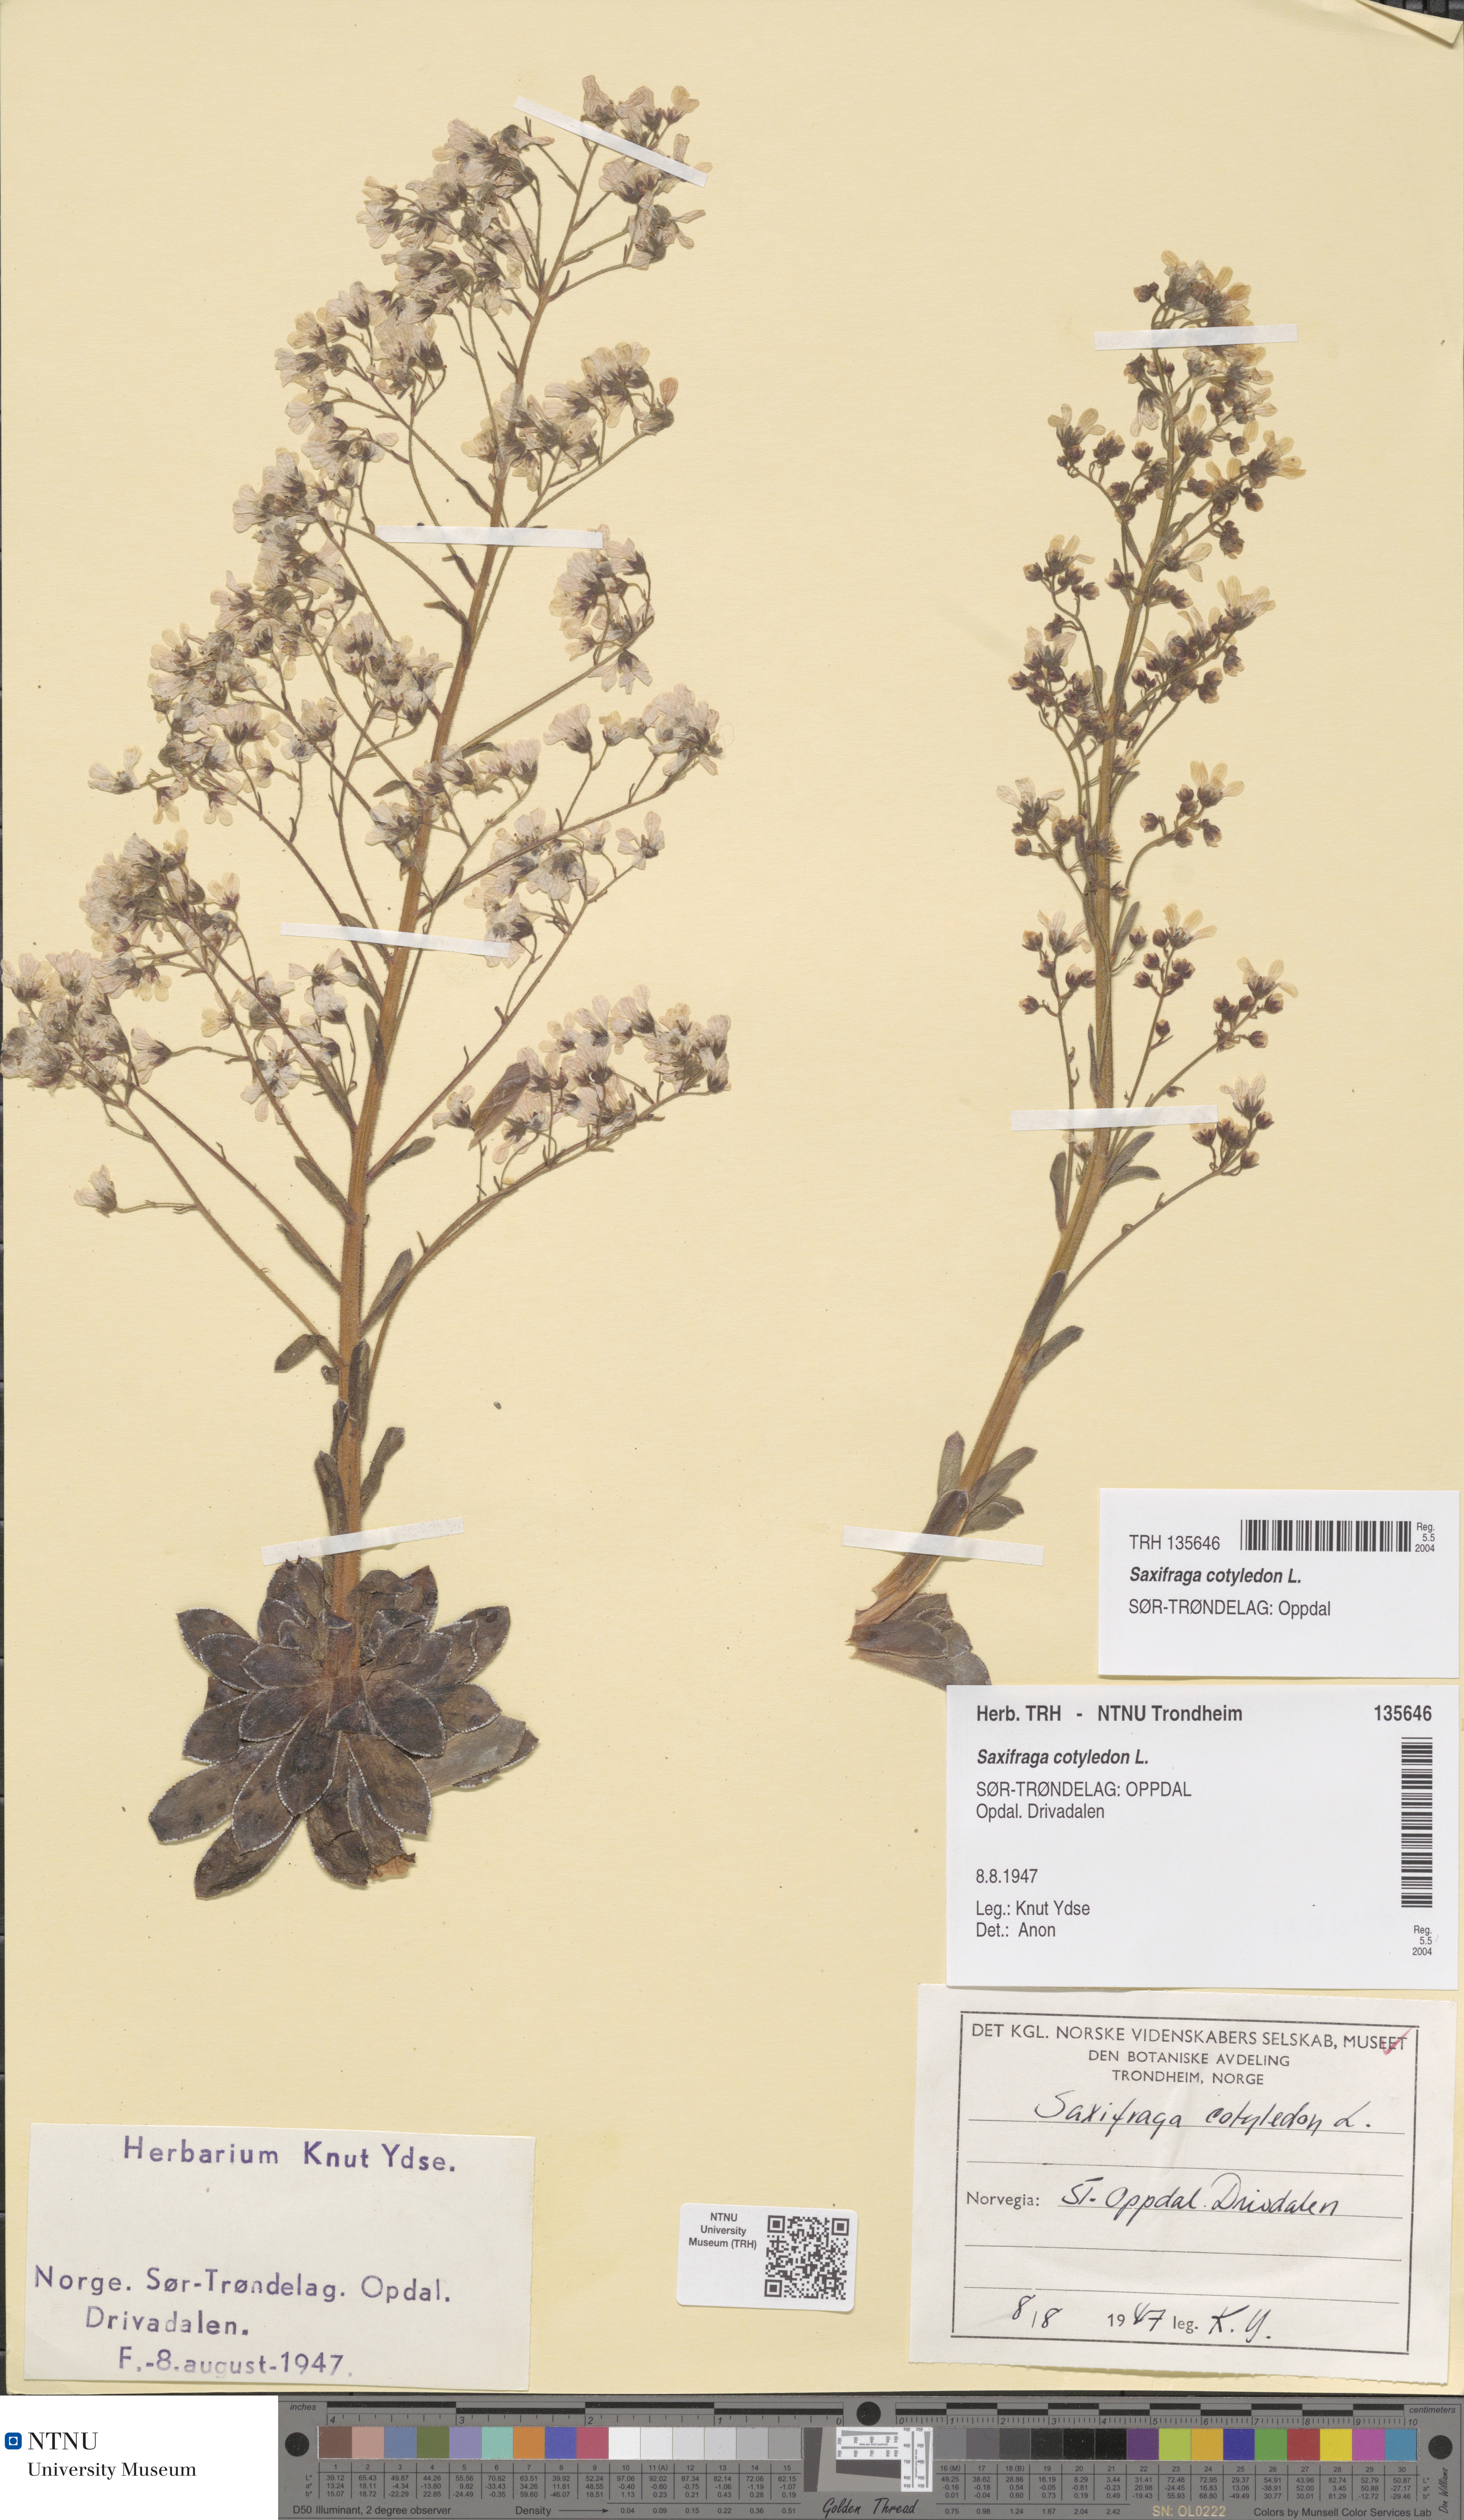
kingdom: Plantae
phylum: Tracheophyta
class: Magnoliopsida
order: Saxifragales
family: Saxifragaceae
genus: Saxifraga
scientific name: Saxifraga cotyledon
